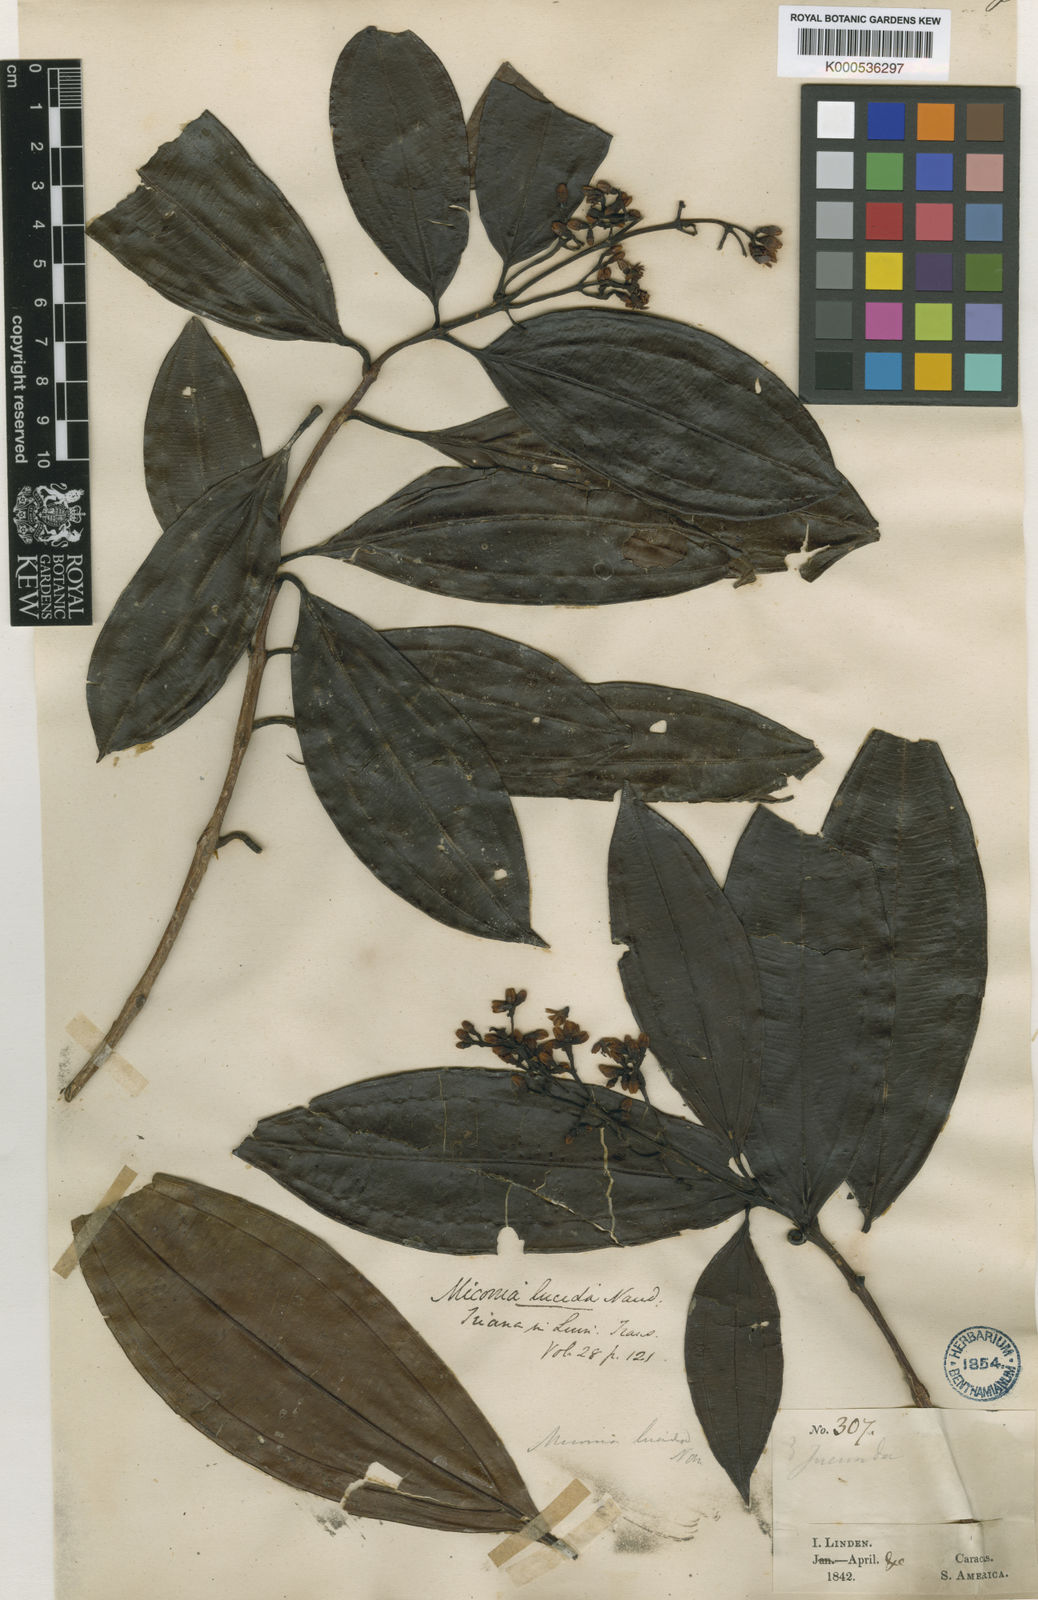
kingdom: Plantae
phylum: Tracheophyta
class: Magnoliopsida
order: Myrtales
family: Melastomataceae
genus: Miconia
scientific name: Miconia lucida
